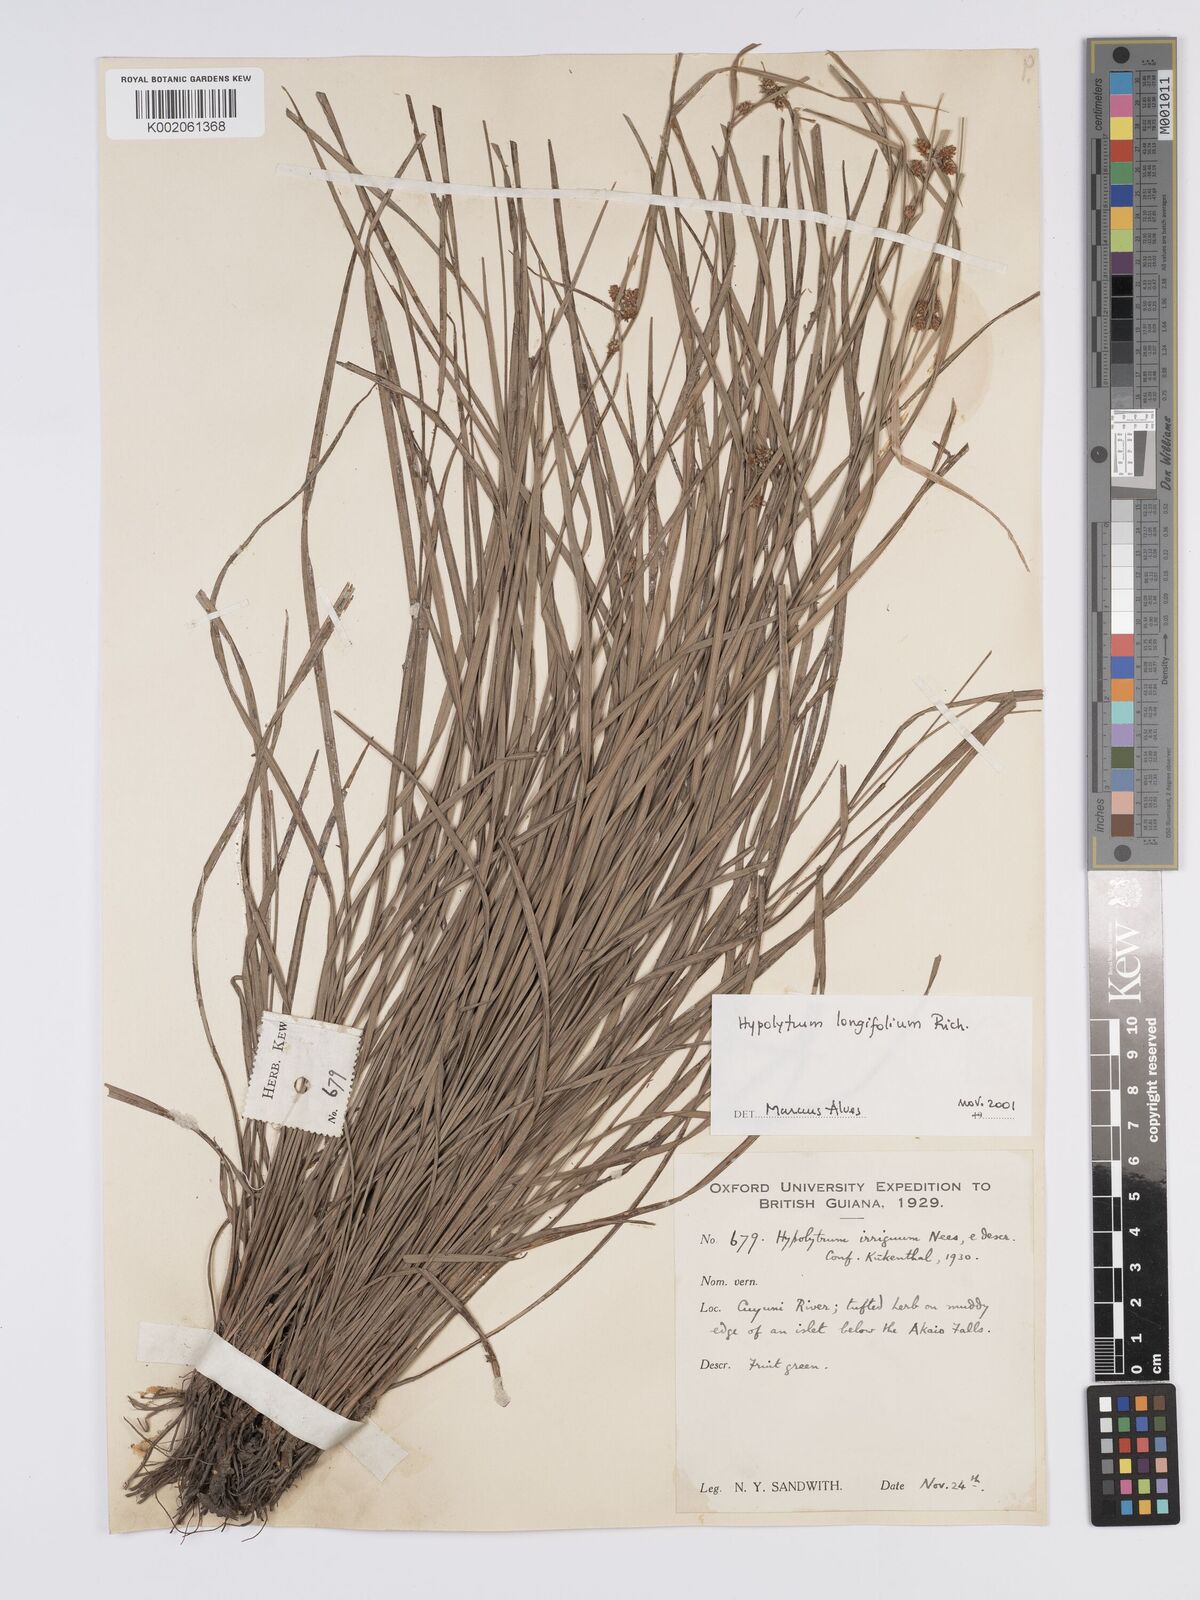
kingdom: Plantae
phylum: Tracheophyta
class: Liliopsida
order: Poales
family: Cyperaceae
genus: Hypolytrum
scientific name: Hypolytrum longifolium
